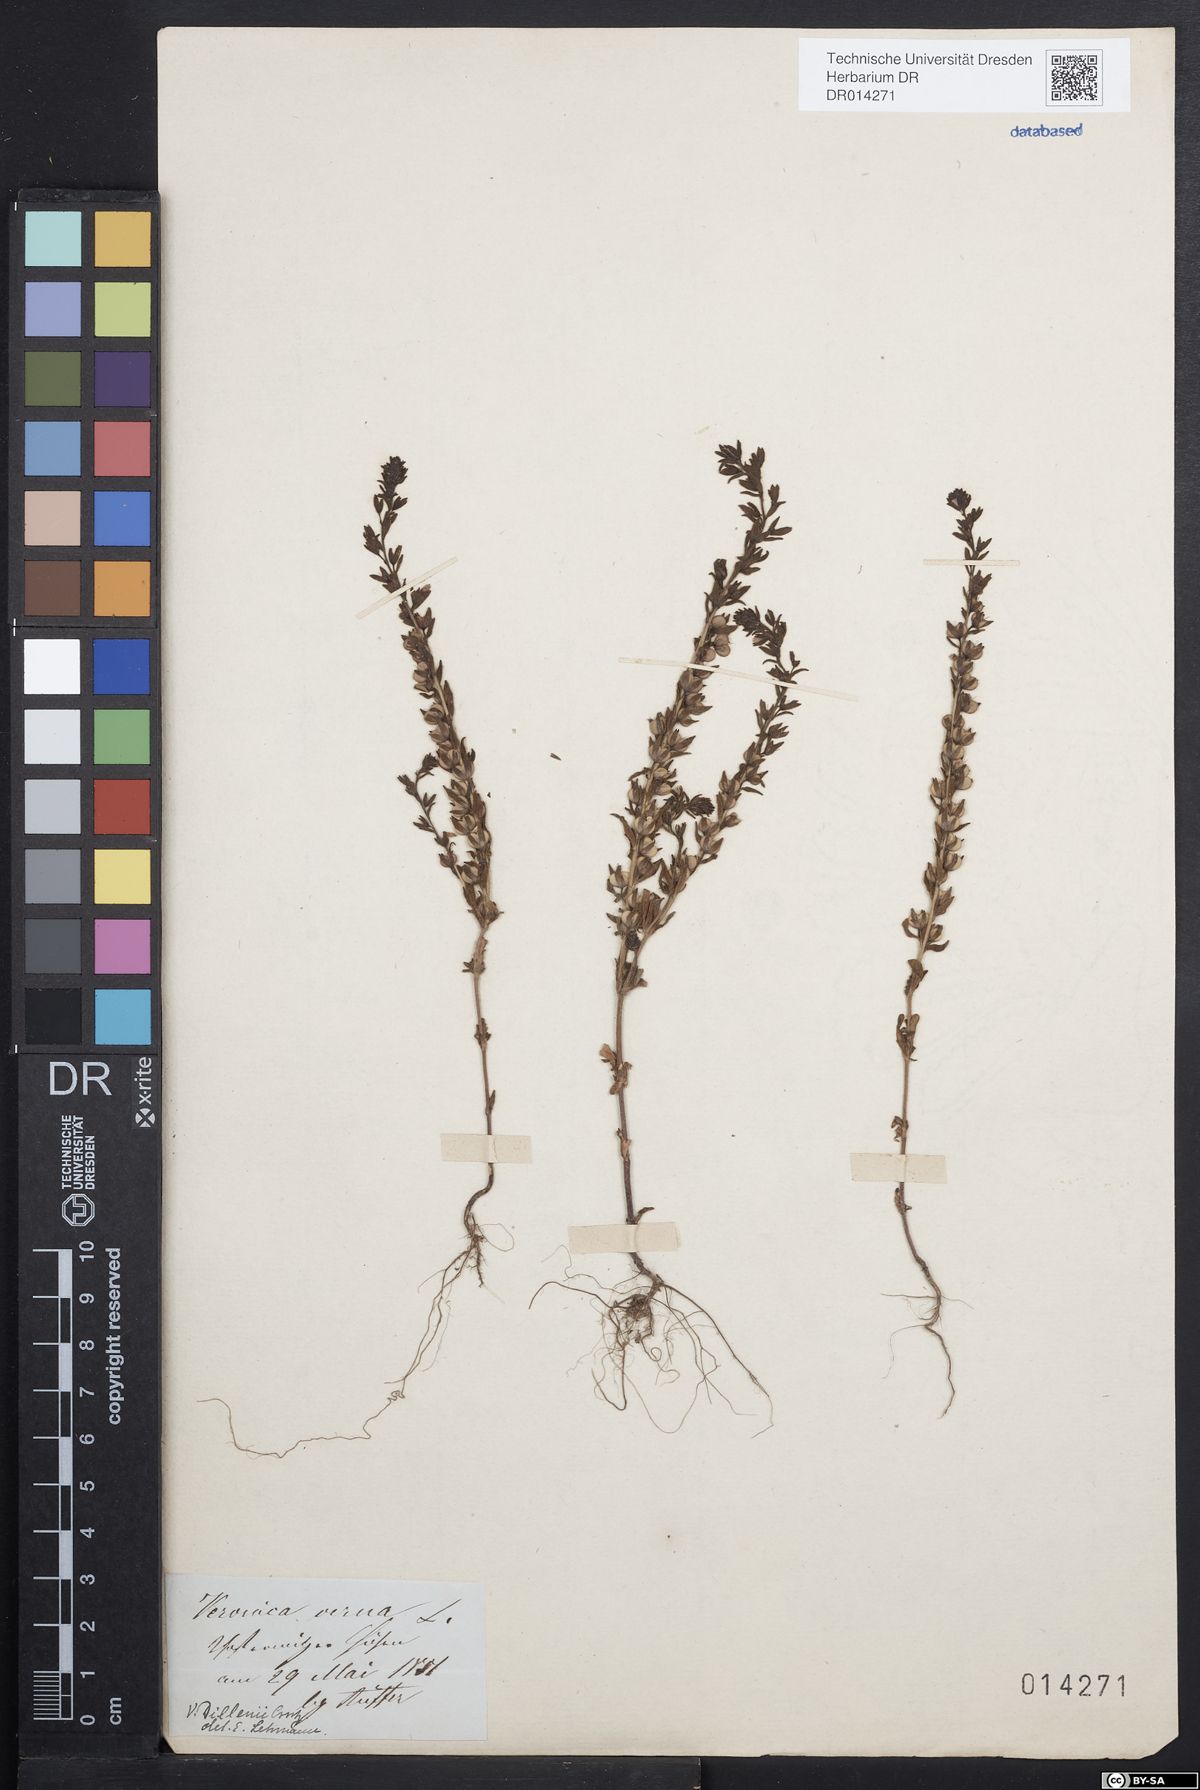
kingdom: Plantae
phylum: Tracheophyta
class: Magnoliopsida
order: Lamiales
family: Plantaginaceae
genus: Veronica
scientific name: Veronica dillenii
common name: Dillenius' speedwell
